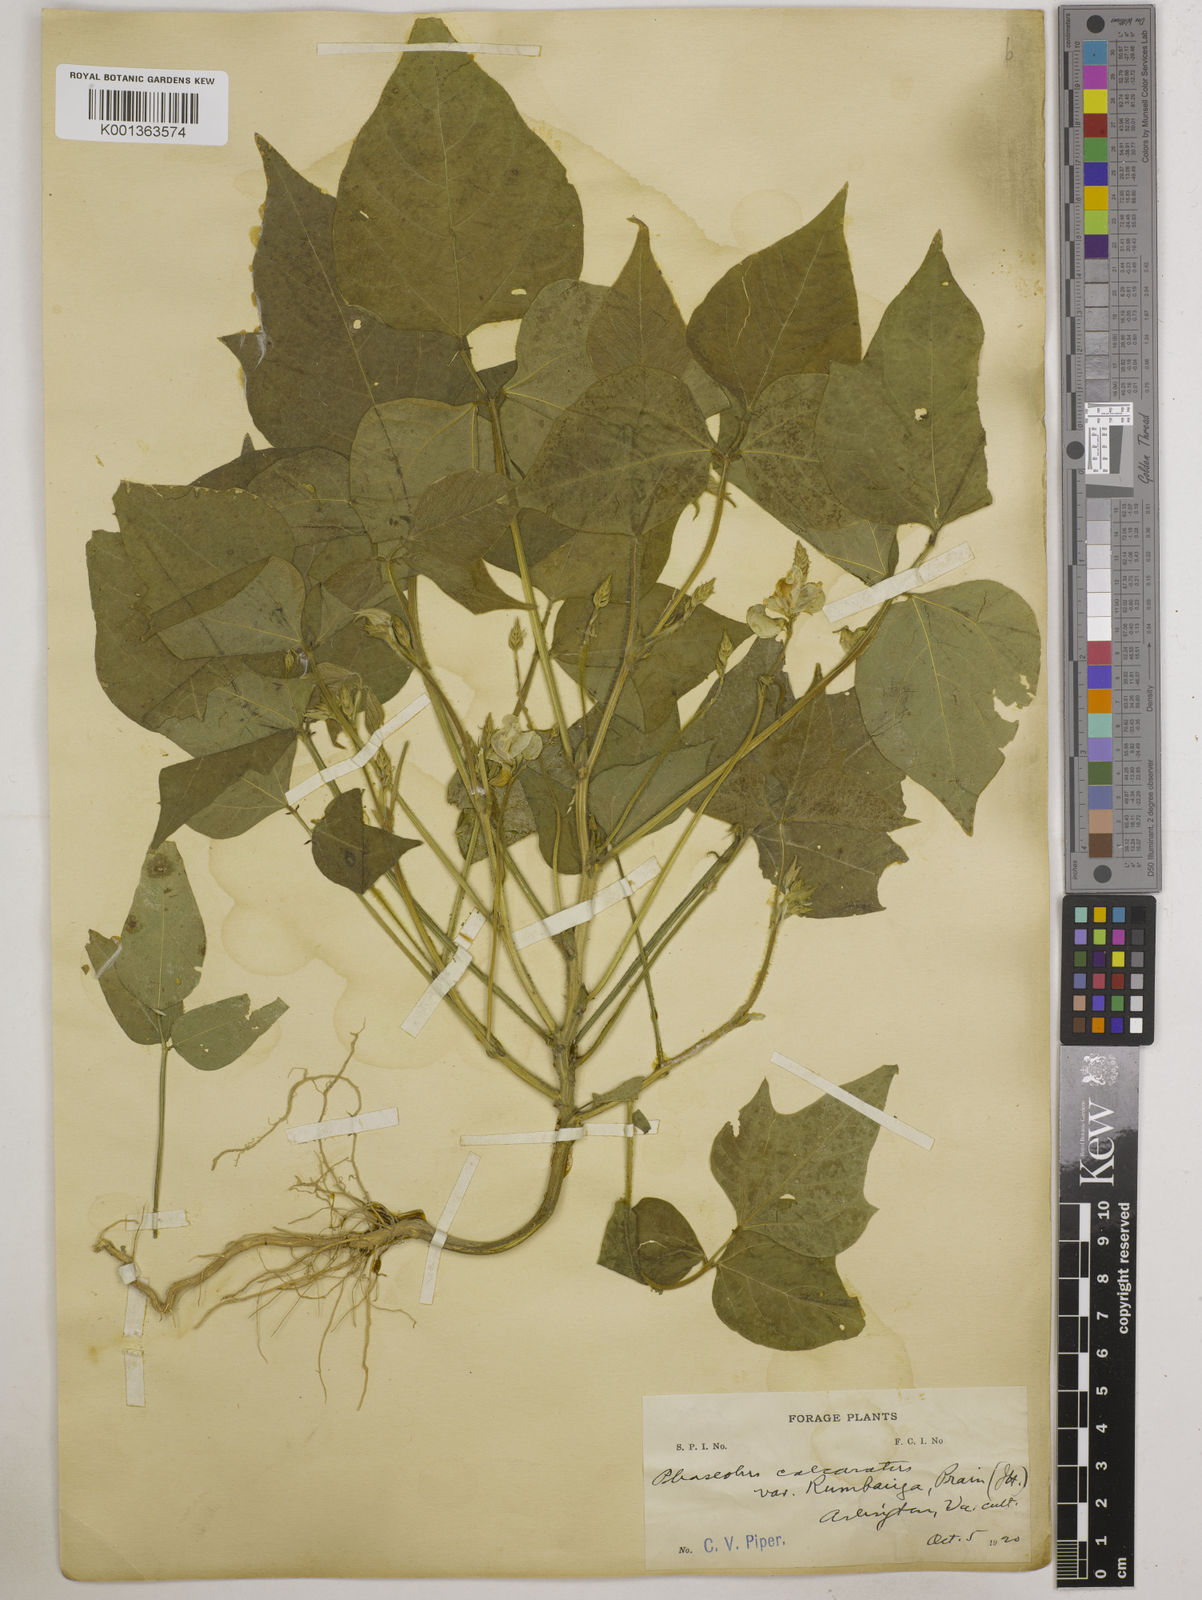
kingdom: Plantae
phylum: Tracheophyta
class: Magnoliopsida
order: Fabales
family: Fabaceae
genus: Vigna
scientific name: Vigna umbellata
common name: Oriental-bean
